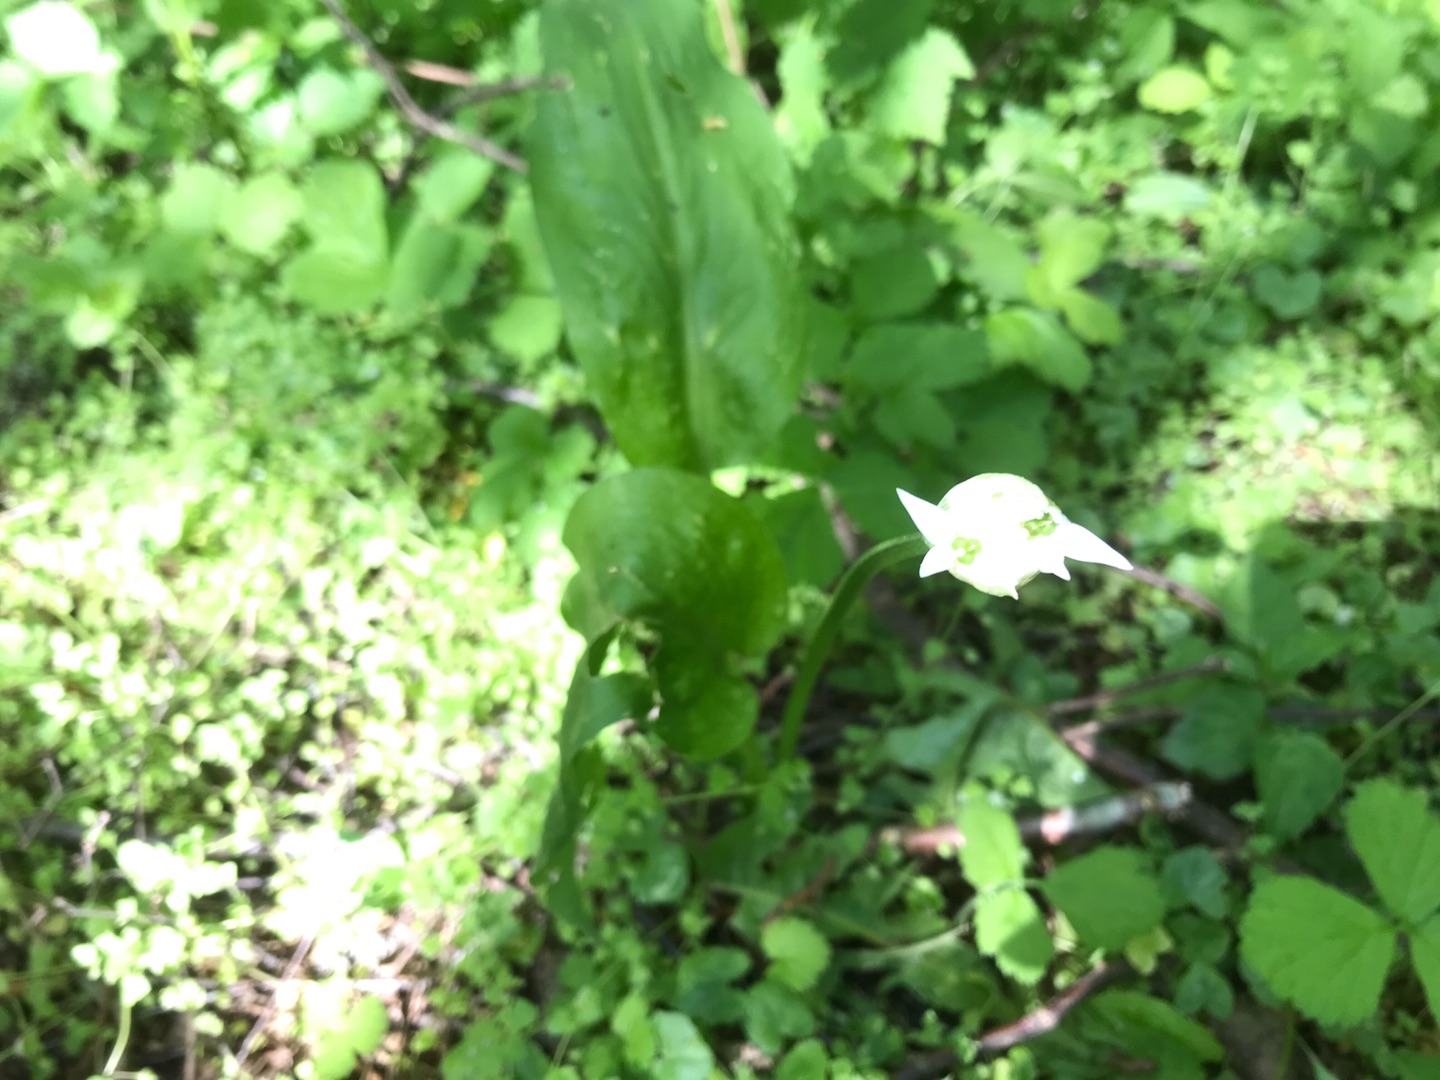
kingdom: Plantae
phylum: Tracheophyta
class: Liliopsida
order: Asparagales
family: Amaryllidaceae
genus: Allium
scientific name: Allium ursinum
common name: Rams-løg
